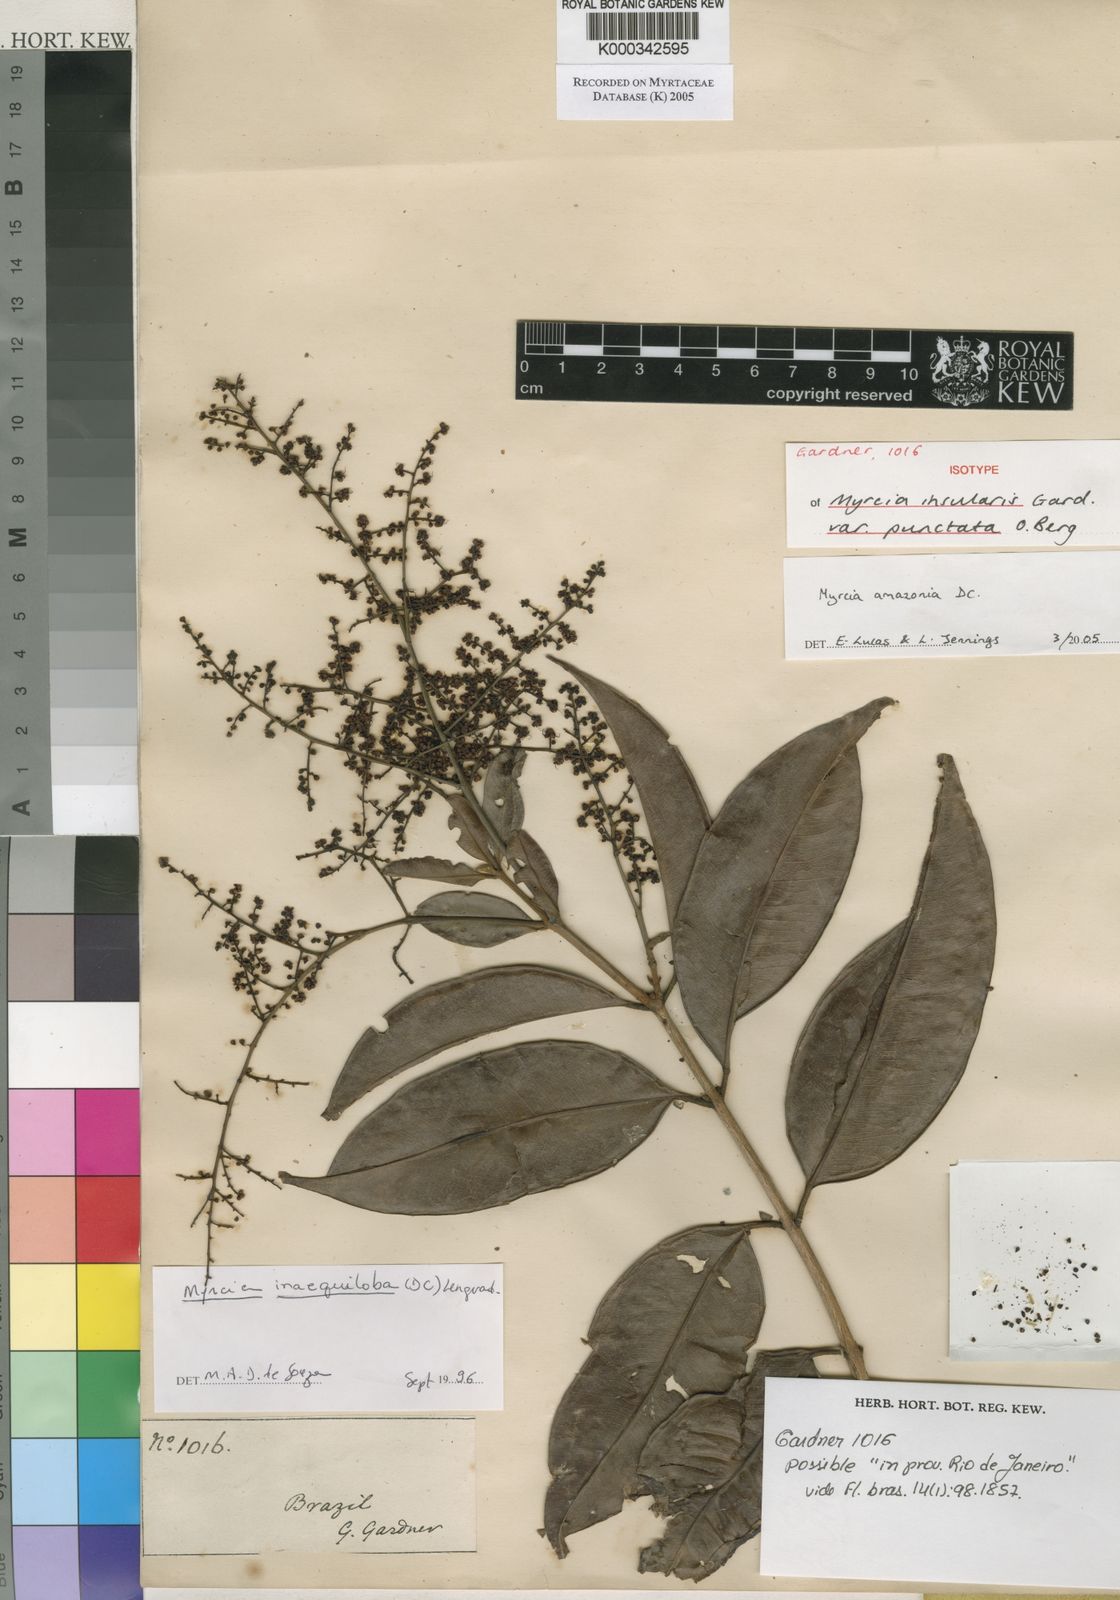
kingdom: Plantae
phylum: Tracheophyta
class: Magnoliopsida
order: Myrtales
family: Myrtaceae
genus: Myrcia
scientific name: Myrcia insularis
